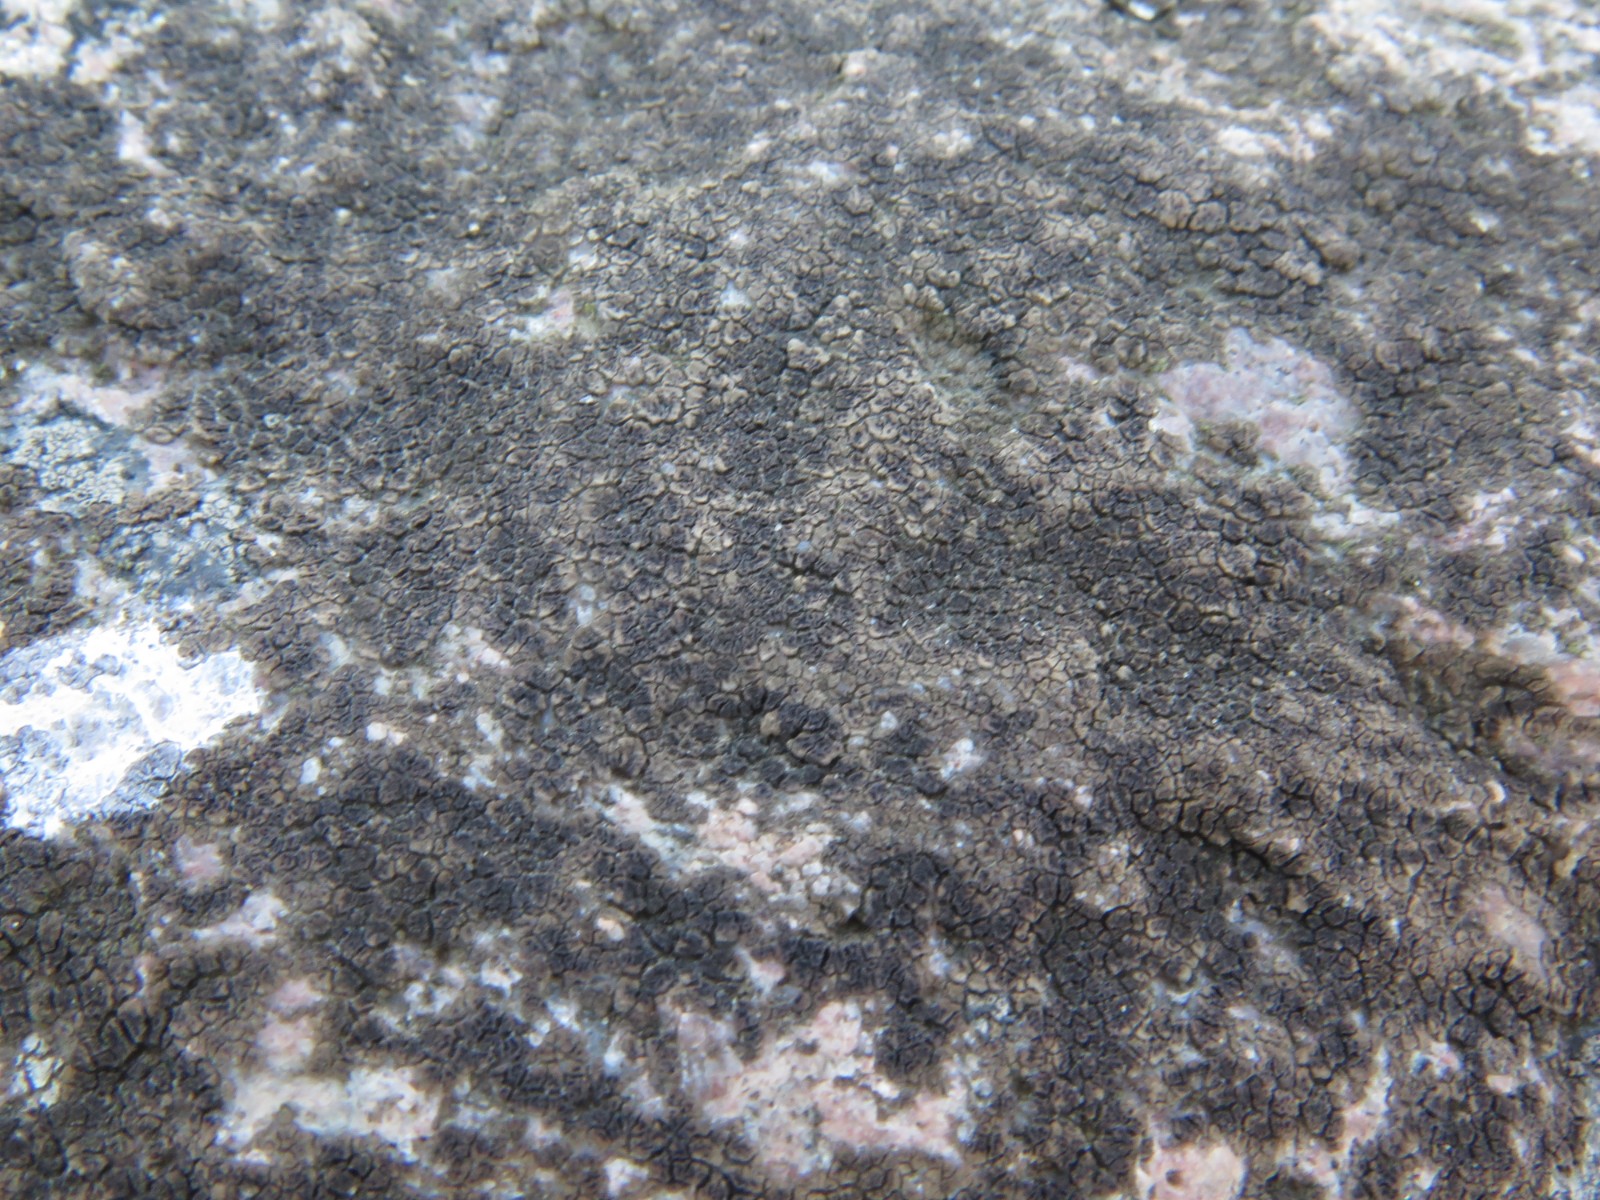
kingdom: Fungi
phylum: Ascomycota
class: Lecanoromycetes
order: Acarosporales
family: Acarosporaceae
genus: Acarospora
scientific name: Acarospora fuscata
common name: brun småsporelav
